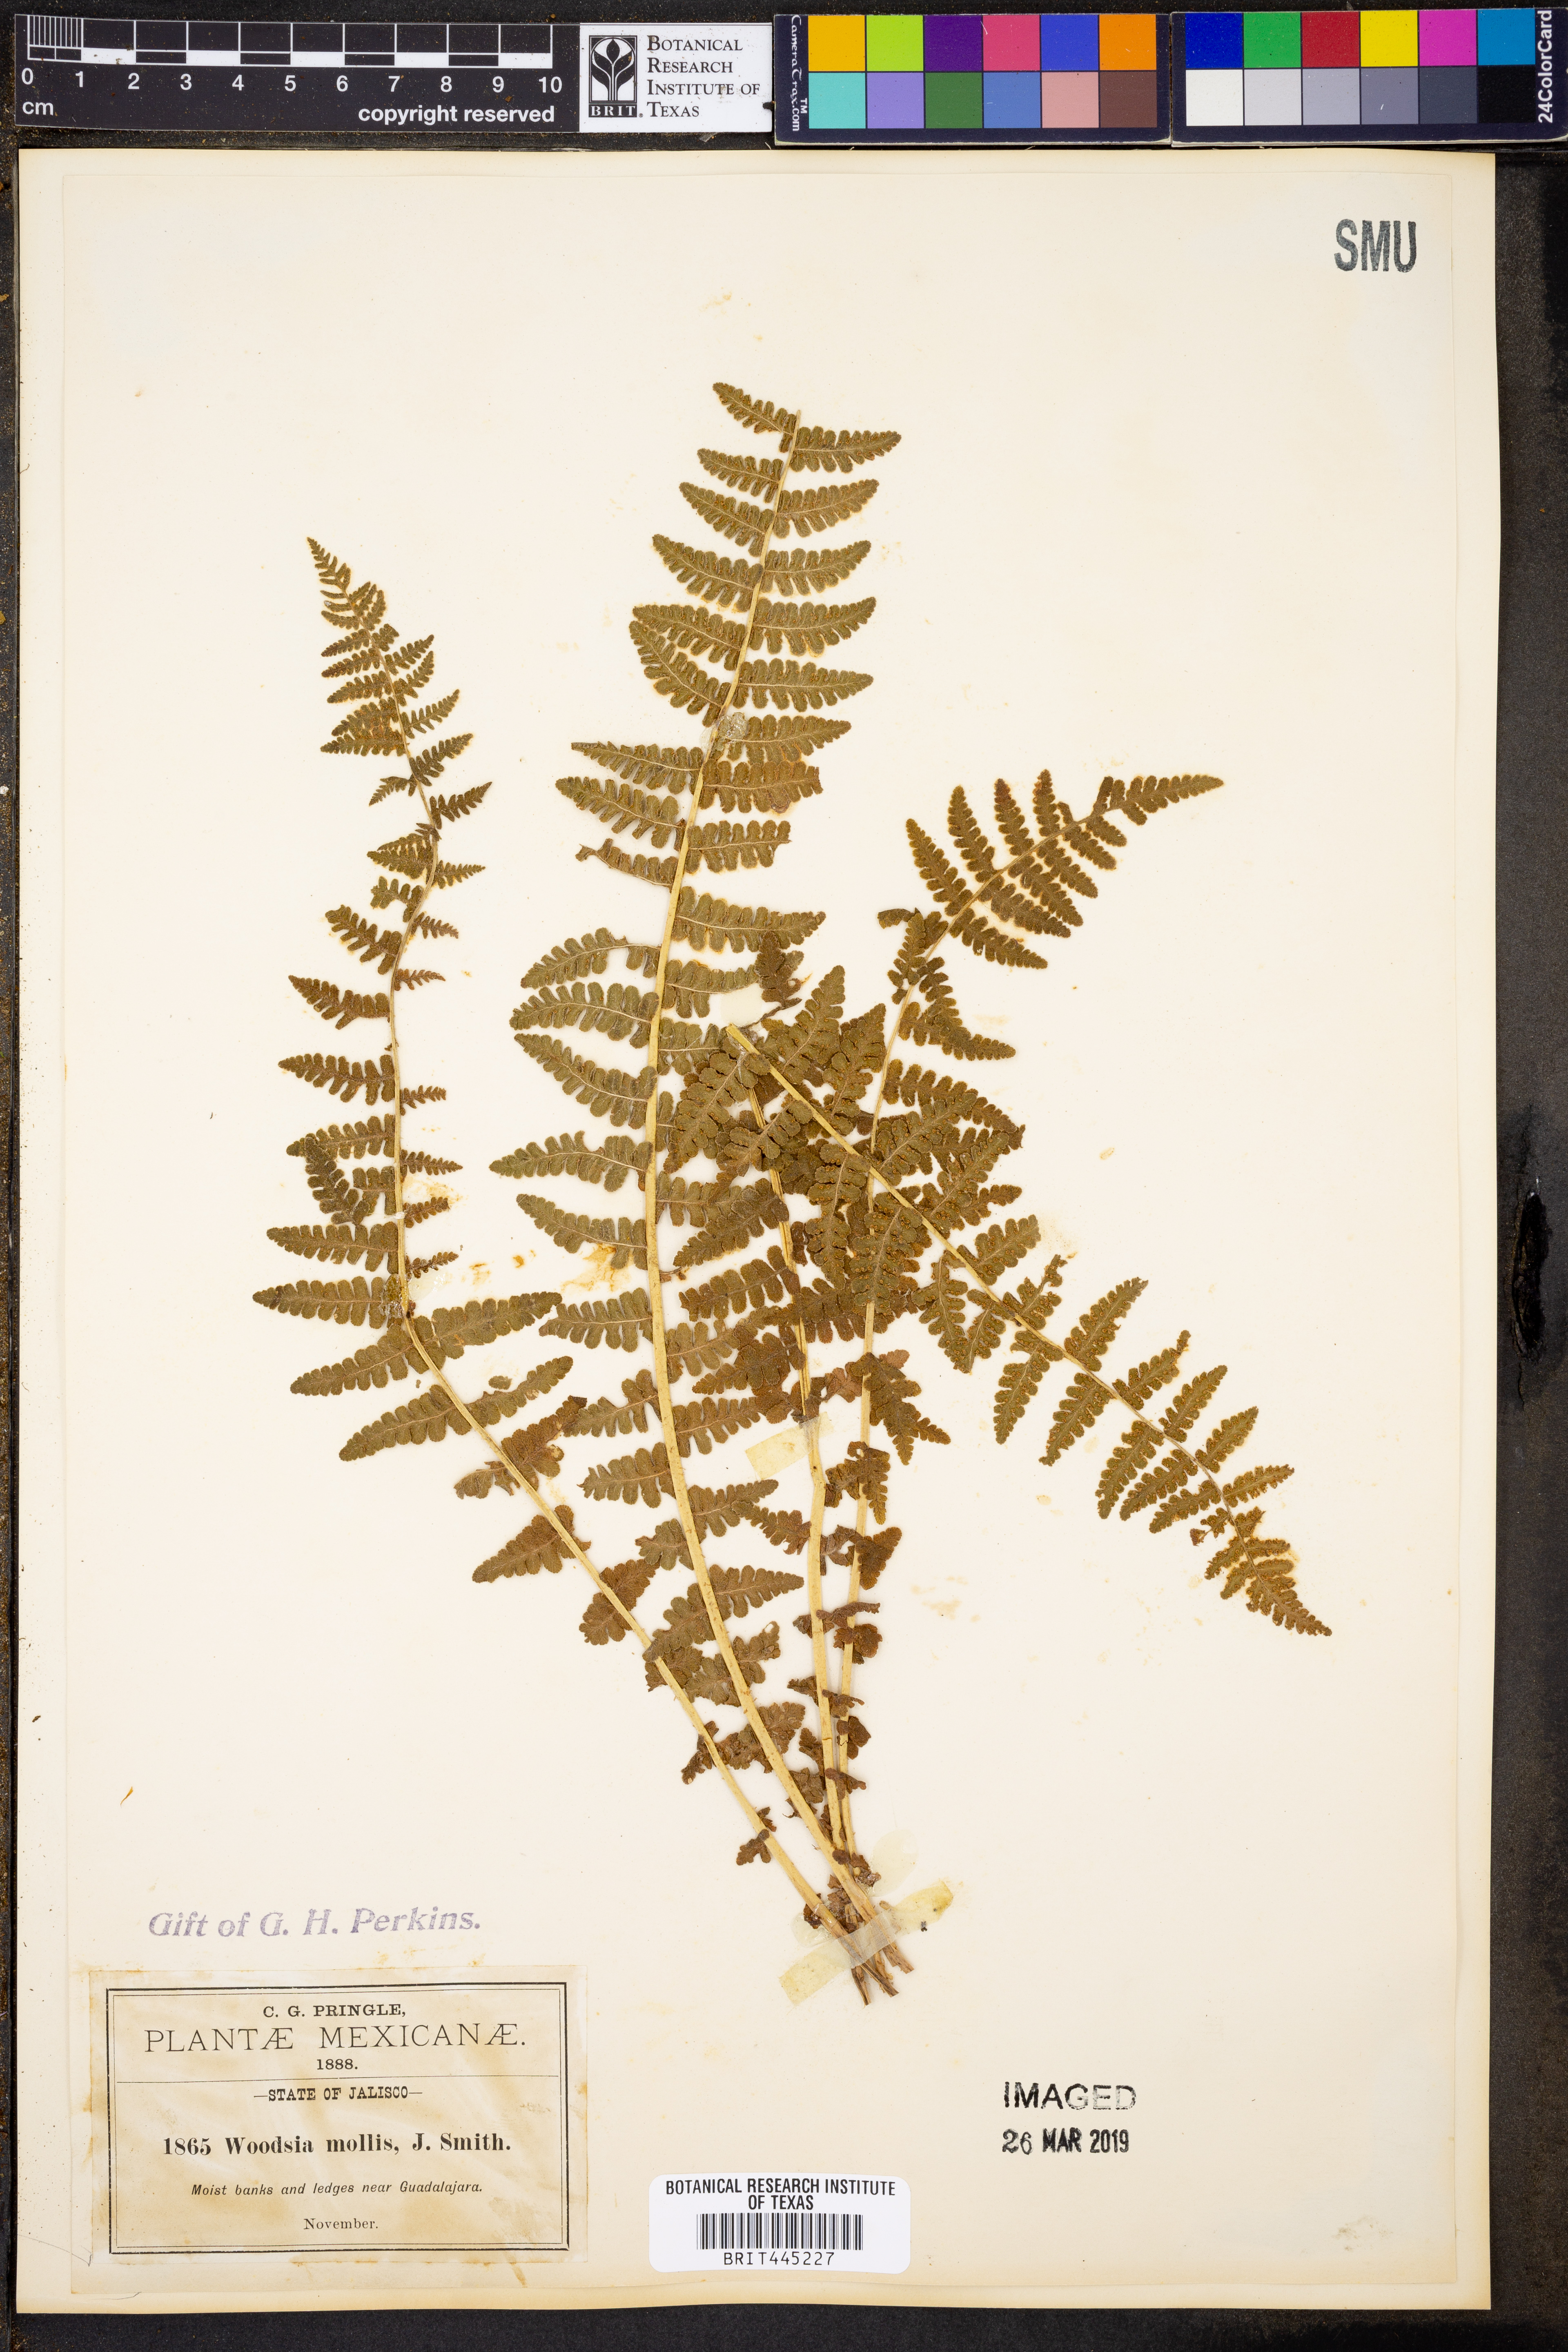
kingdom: Plantae
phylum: Tracheophyta
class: Polypodiopsida
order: Polypodiales
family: Woodsiaceae
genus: Physematium
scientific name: Physematium molle
